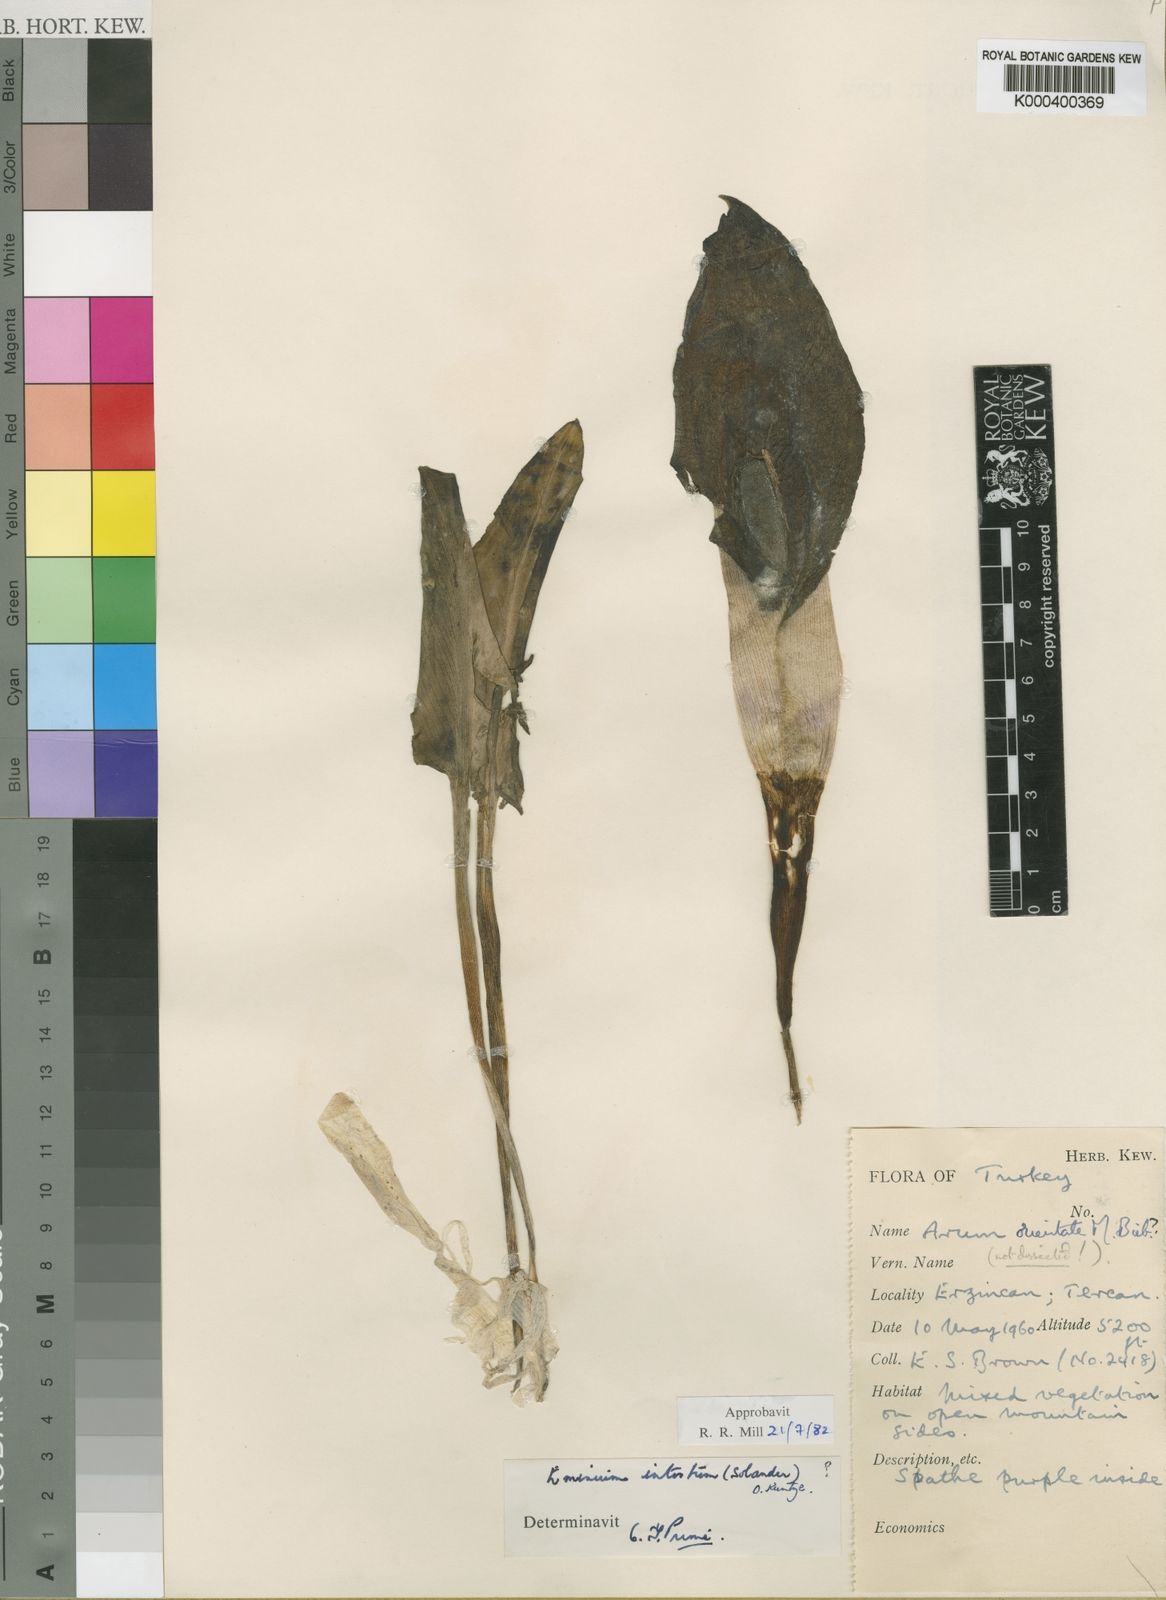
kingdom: Plantae
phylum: Tracheophyta
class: Liliopsida
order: Alismatales
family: Araceae
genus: Eminium
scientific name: Eminium intortum
